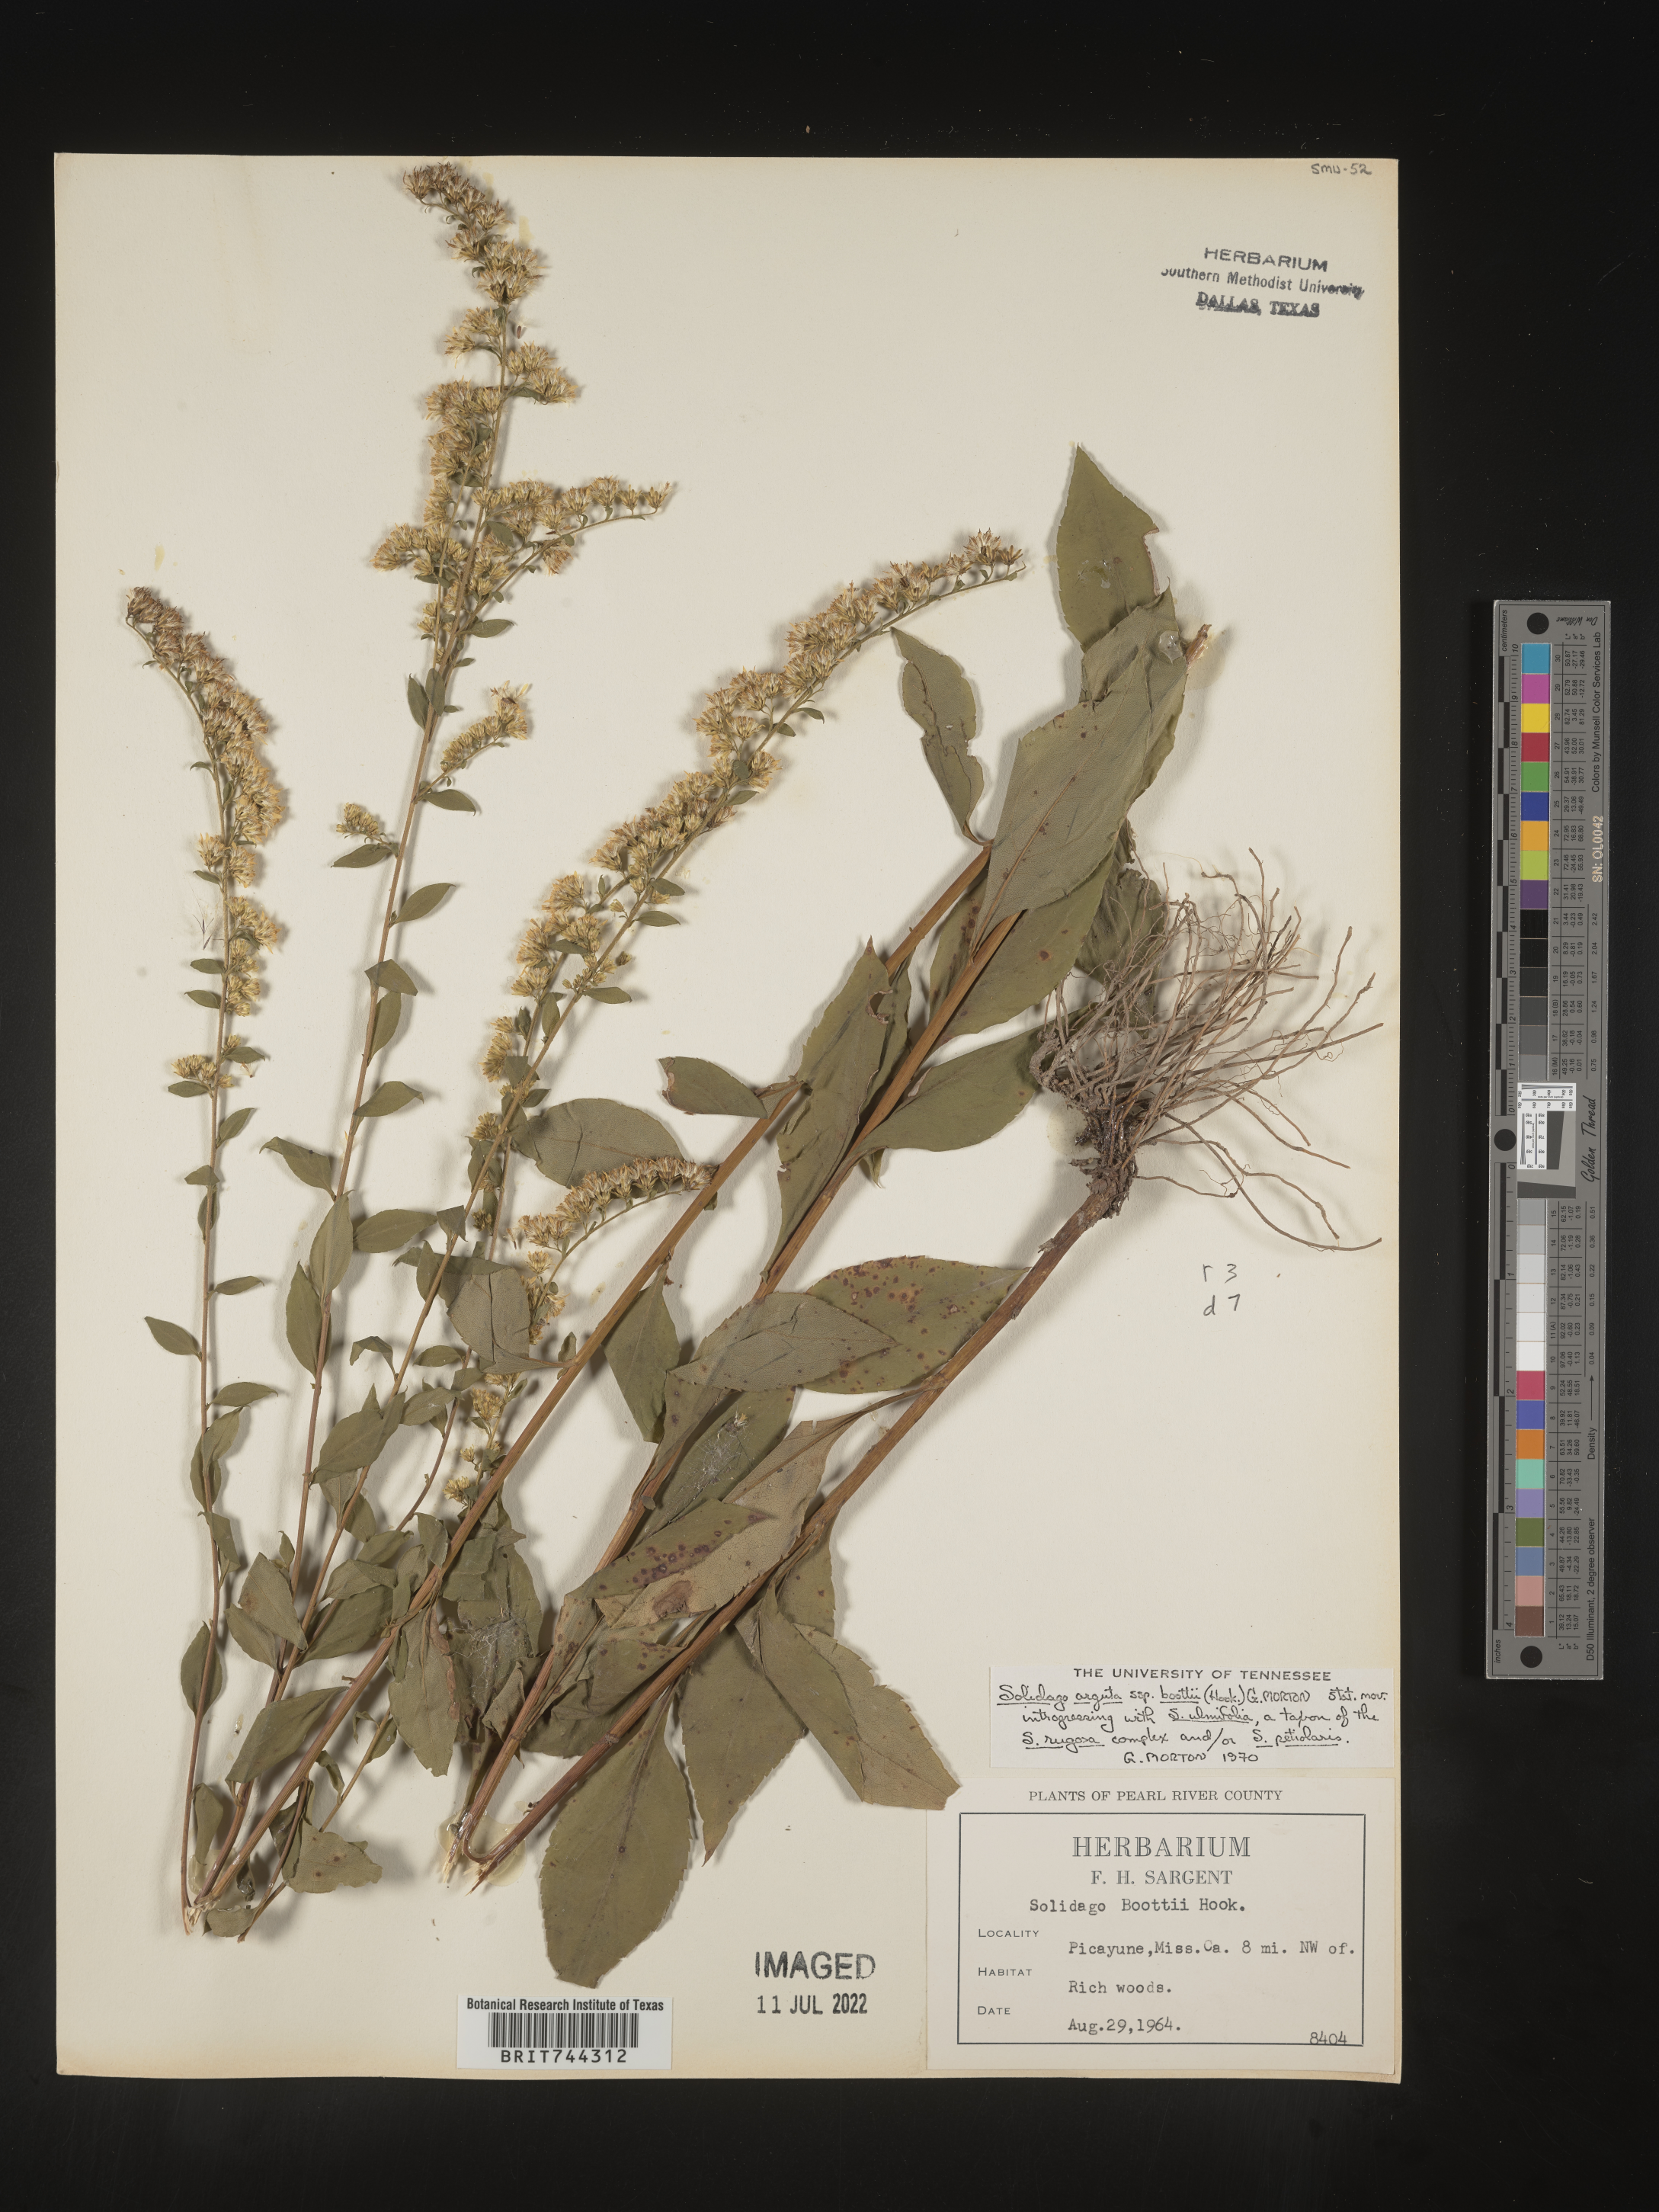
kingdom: Plantae
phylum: Tracheophyta
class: Magnoliopsida
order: Asterales
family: Asteraceae
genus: Solidago
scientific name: Solidago arguta
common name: Atlantic goldenrod
